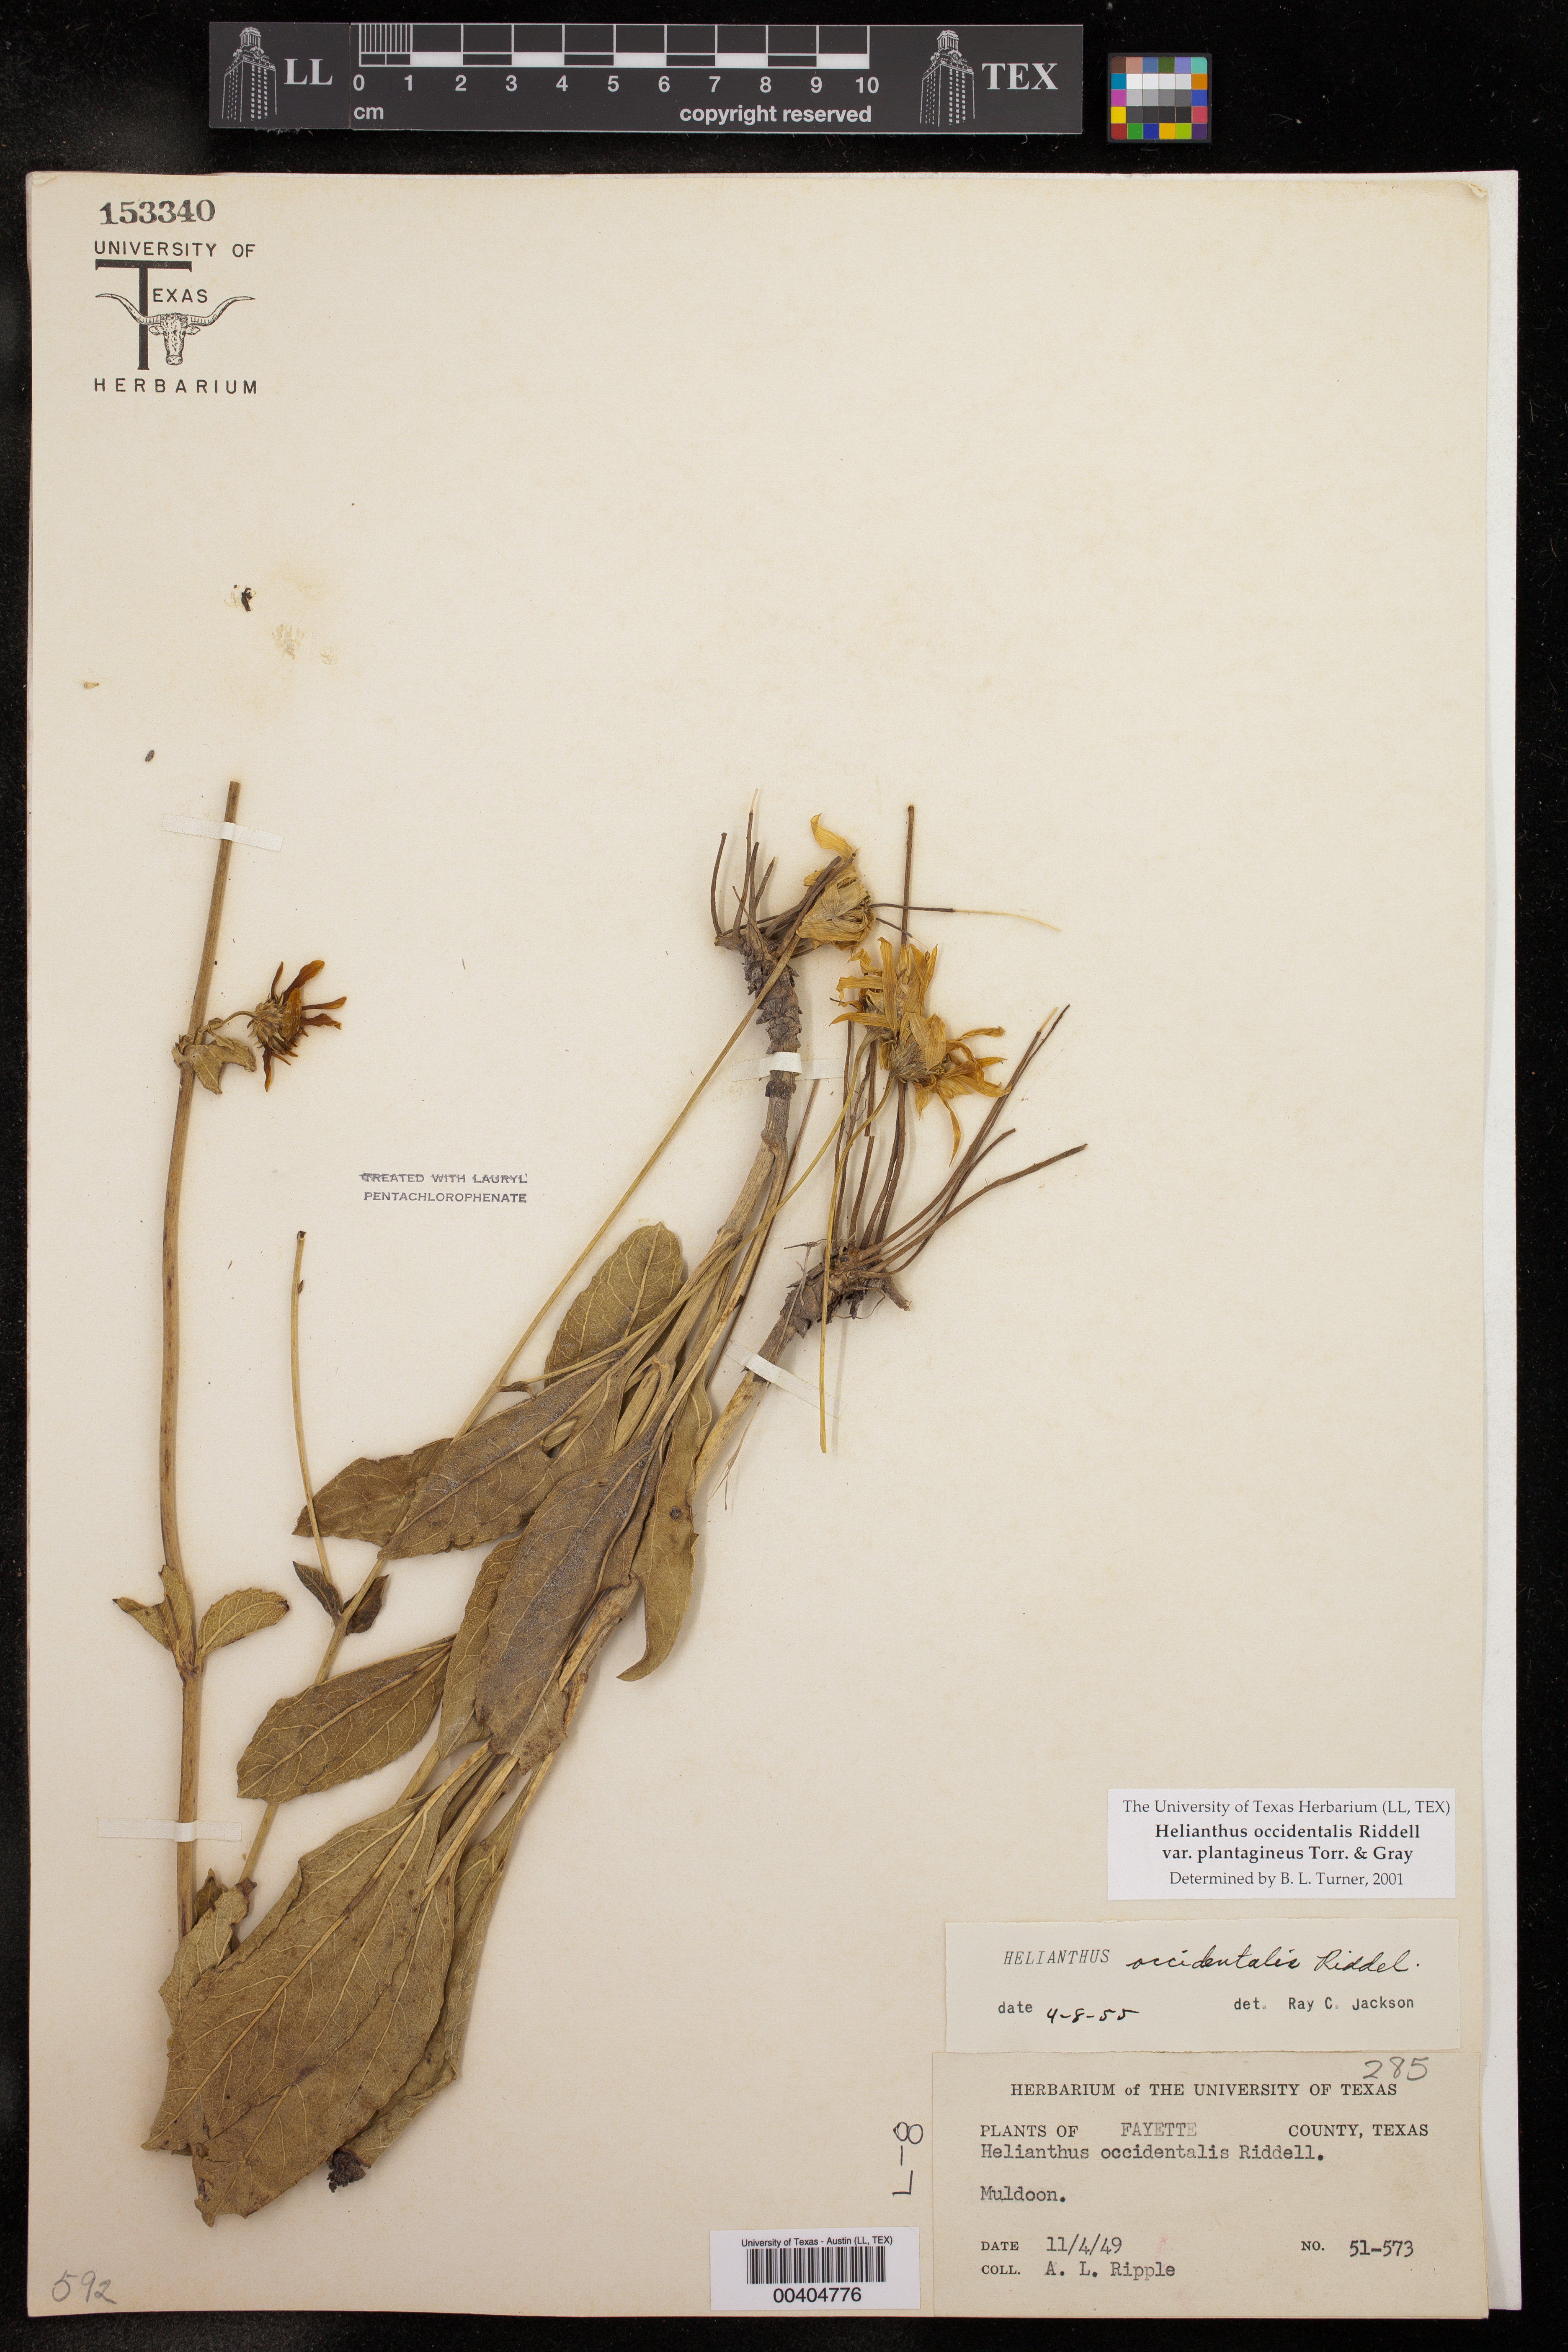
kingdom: Plantae
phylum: Tracheophyta
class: Magnoliopsida
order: Asterales
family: Asteraceae
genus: Helianthus
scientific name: Helianthus occidentalis
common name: Western sunflower
